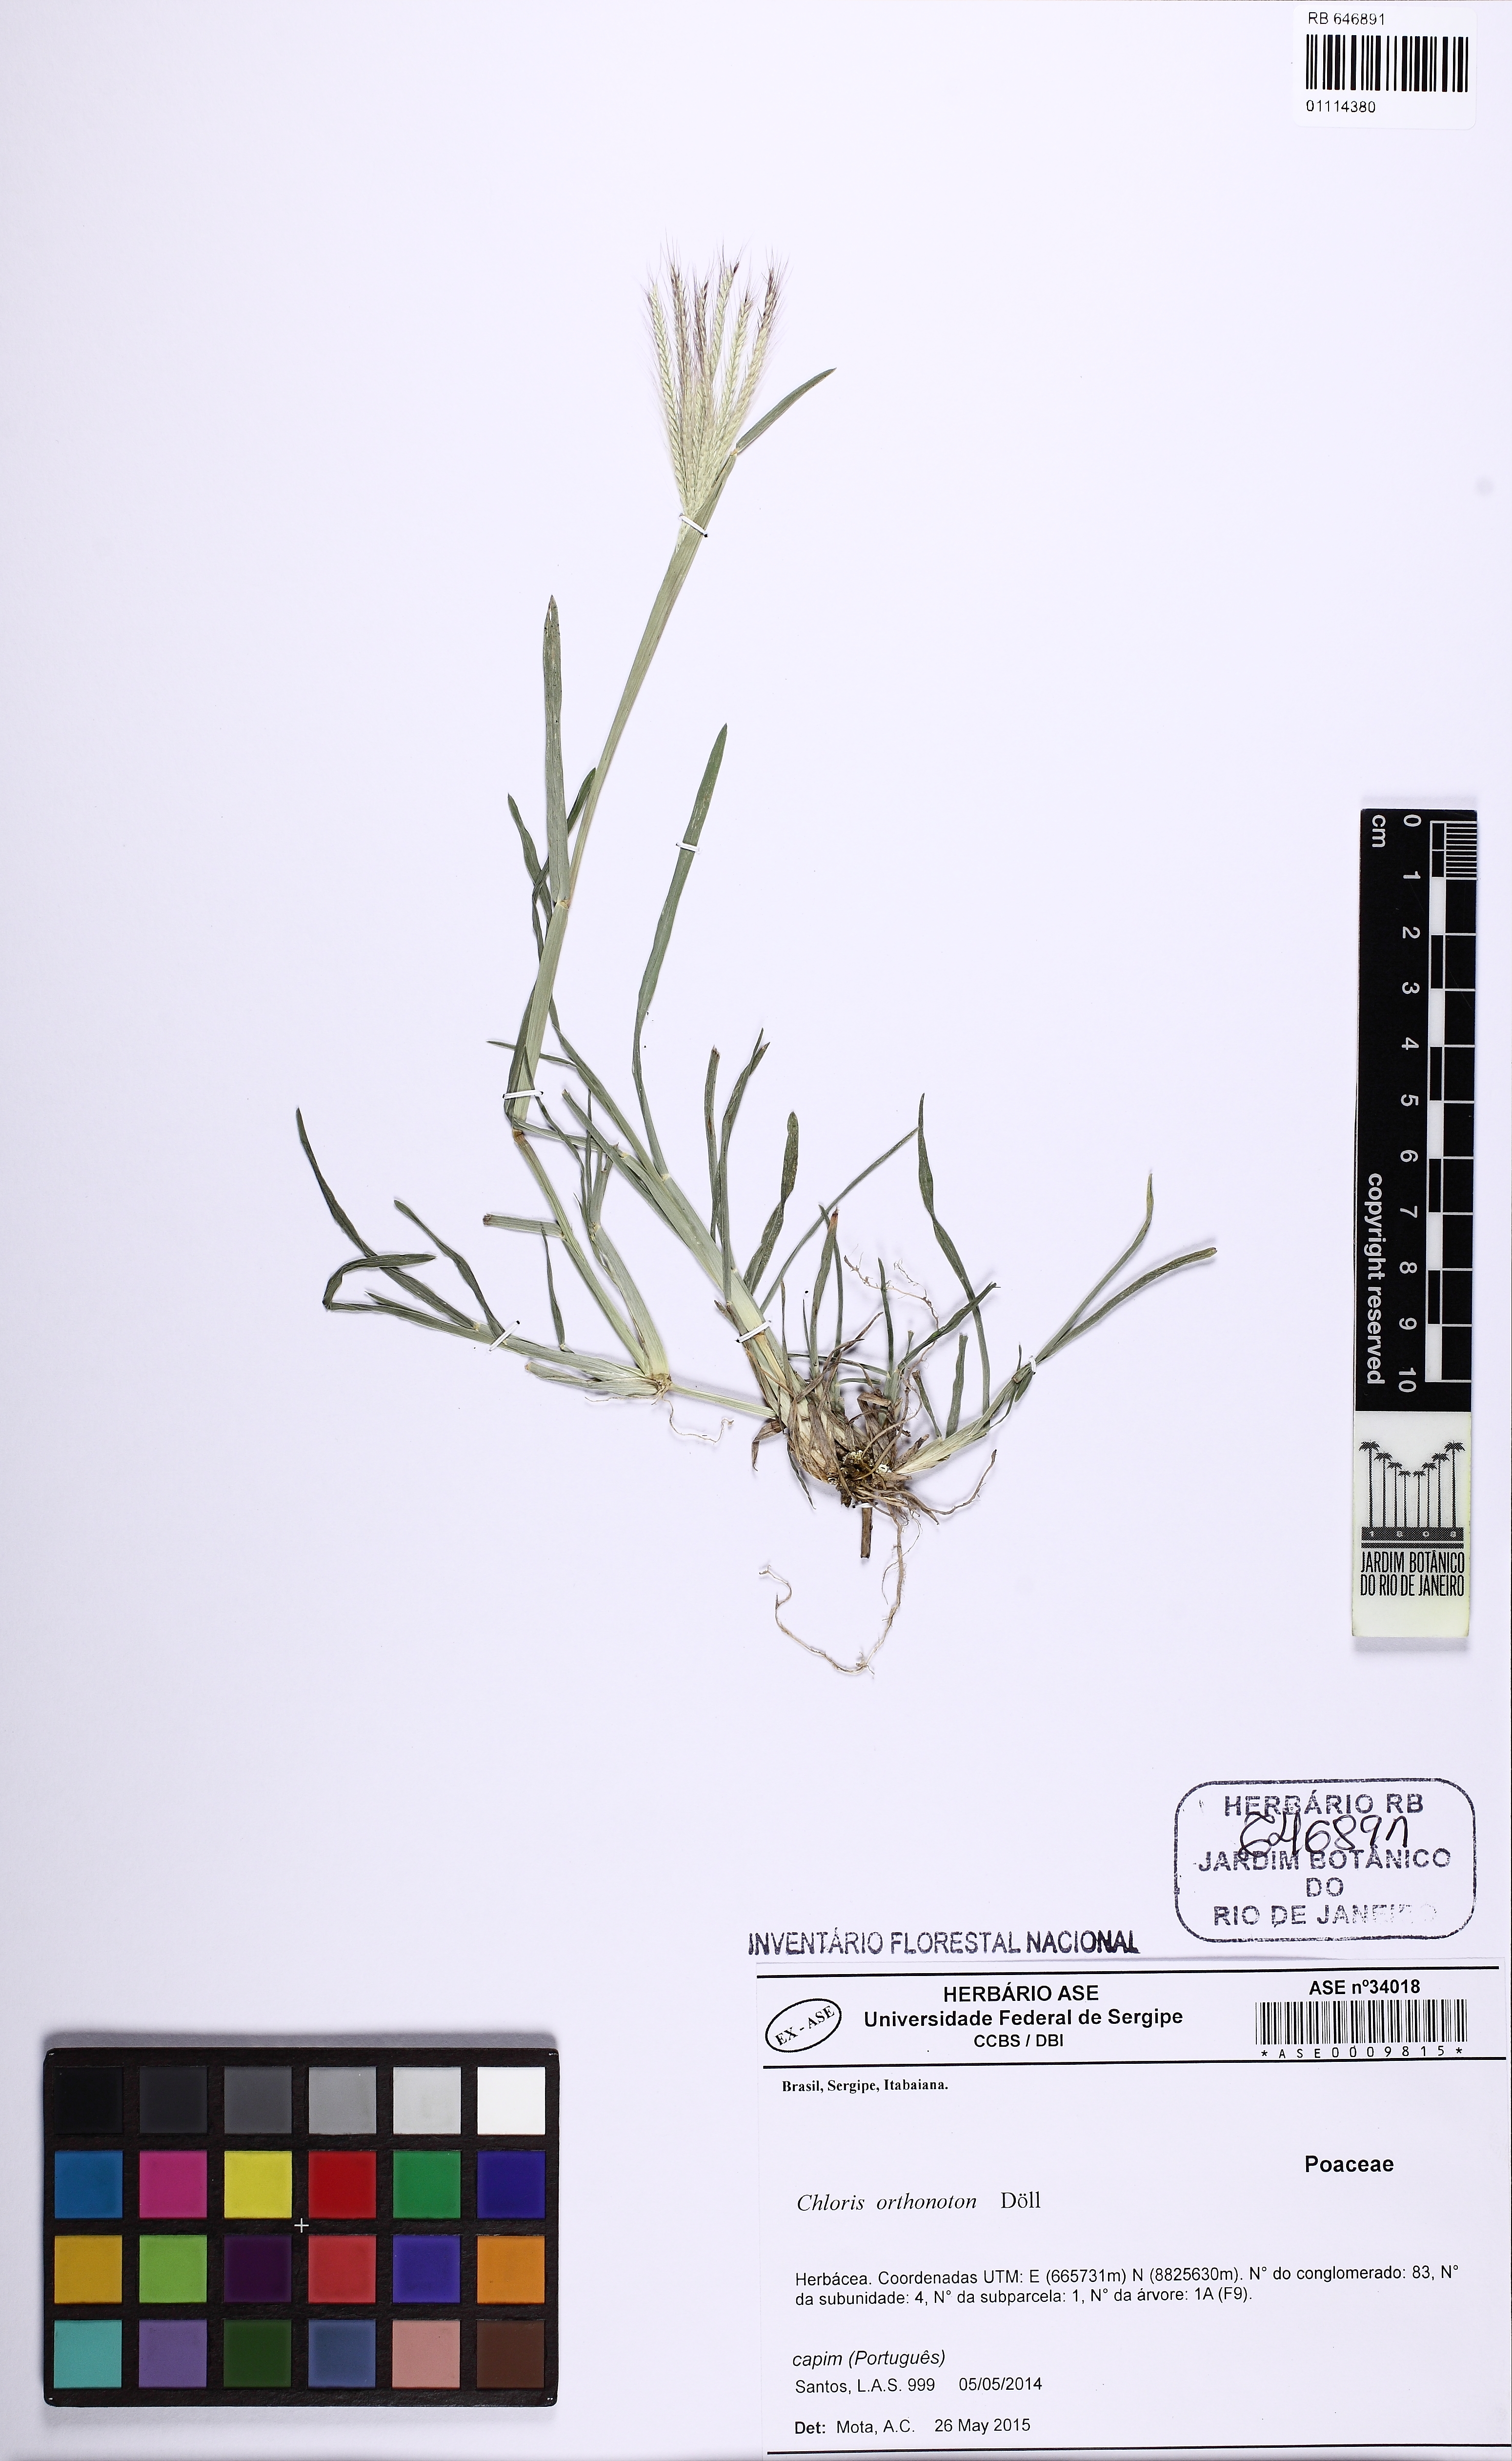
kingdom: Plantae
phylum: Tracheophyta
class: Liliopsida
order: Poales
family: Poaceae
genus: Chloris
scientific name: Chloris orthonoton
